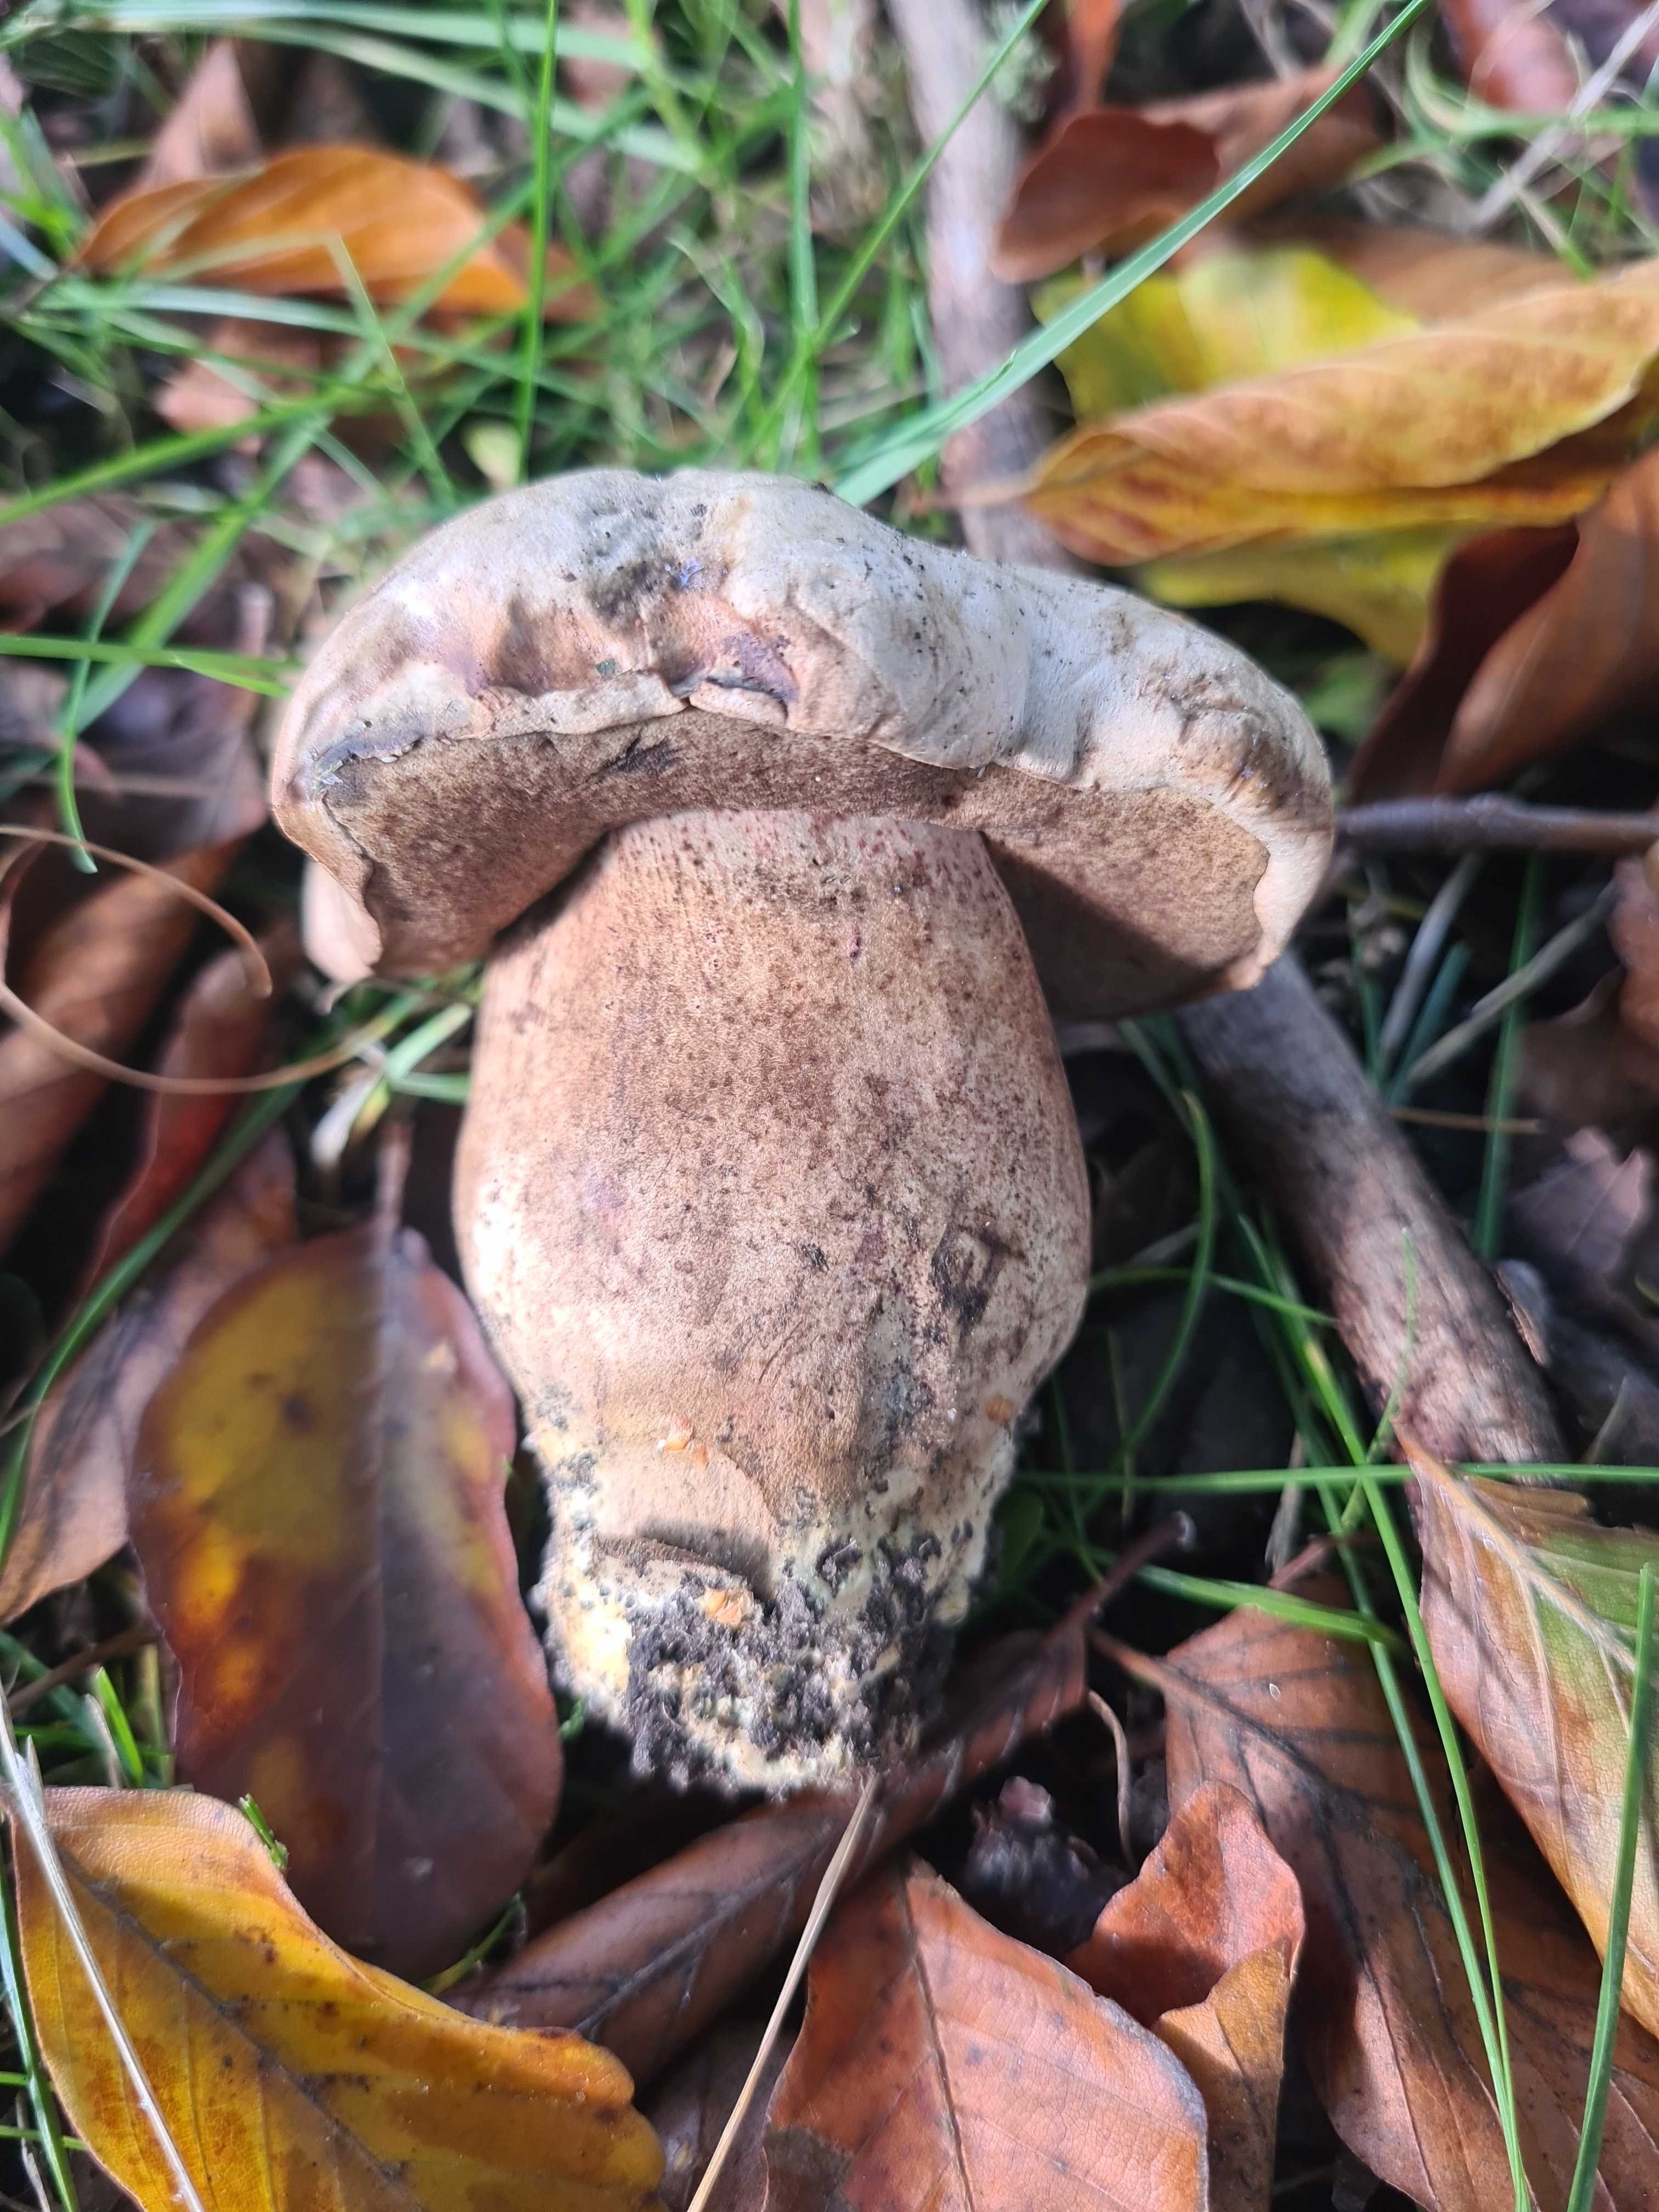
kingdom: Fungi
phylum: Basidiomycota
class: Agaricomycetes
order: Boletales
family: Boletaceae
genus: Caloboletus
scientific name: Caloboletus radicans
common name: rod-rørhat
